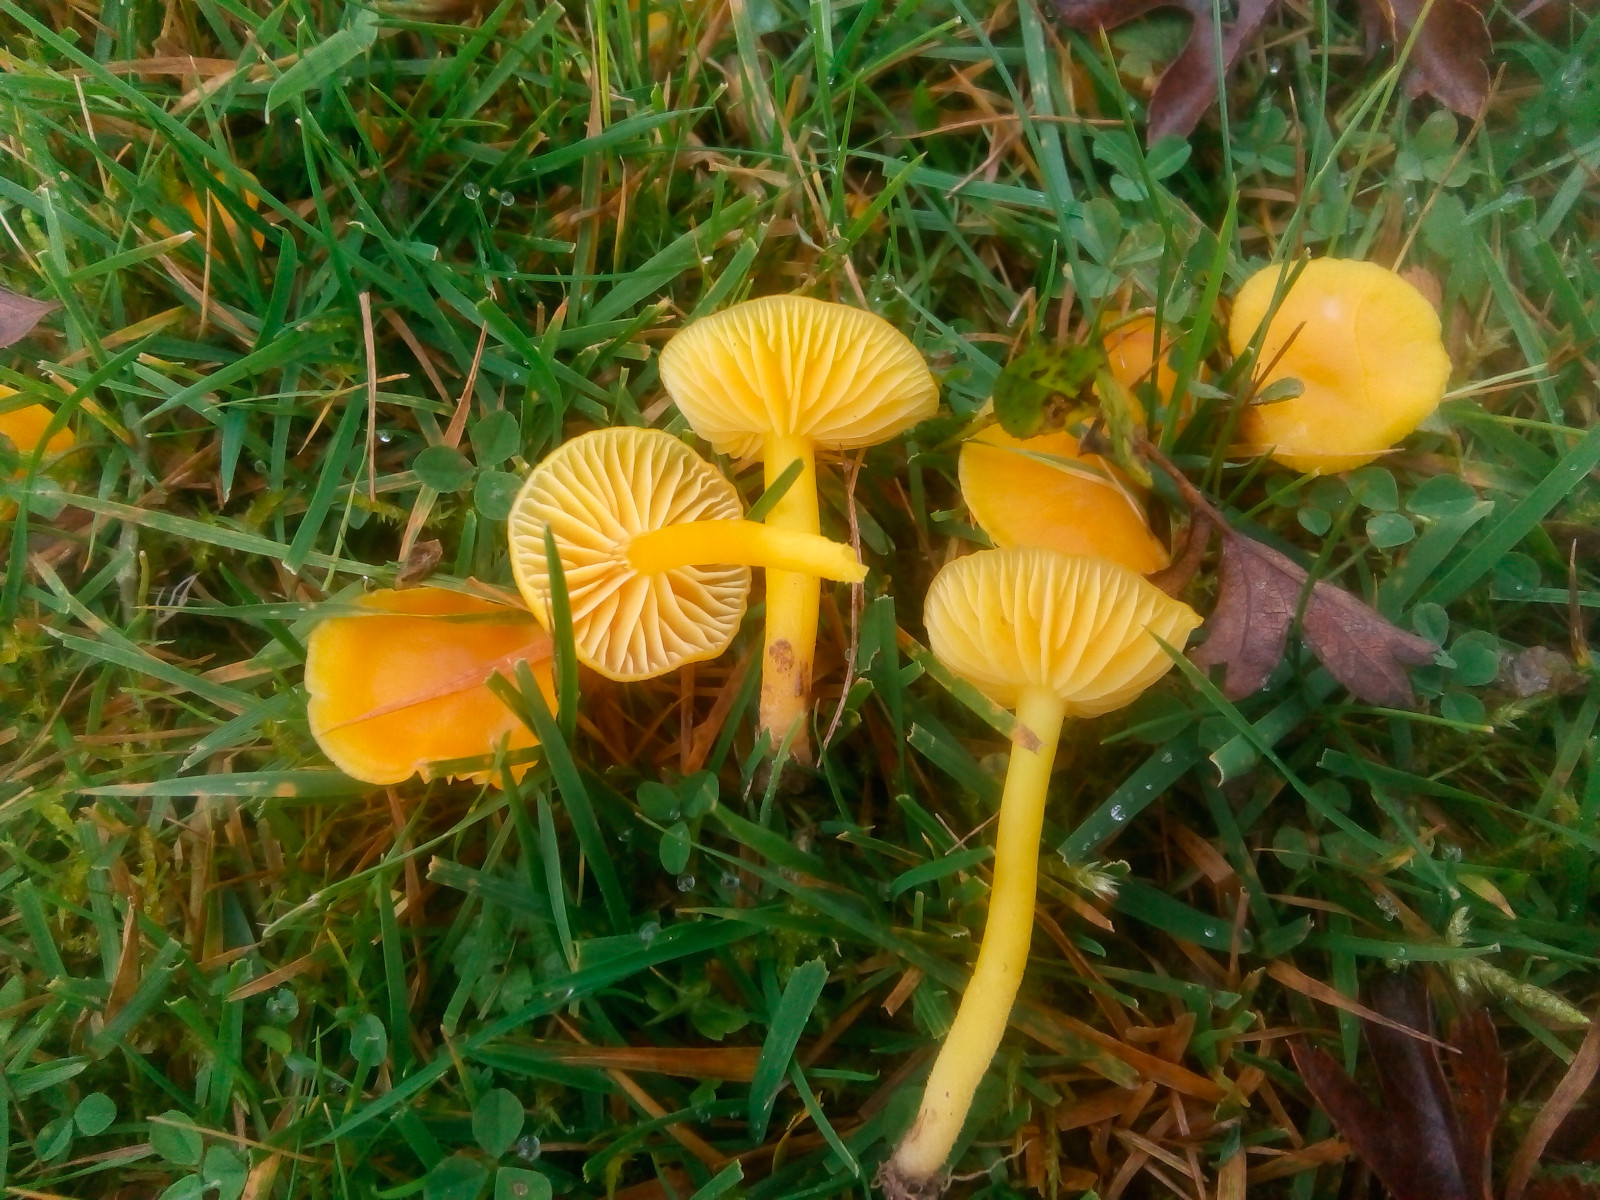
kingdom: Fungi
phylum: Basidiomycota
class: Agaricomycetes
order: Agaricales
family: Hygrophoraceae
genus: Hygrocybe
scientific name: Hygrocybe ceracea
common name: voksgul vokshat
